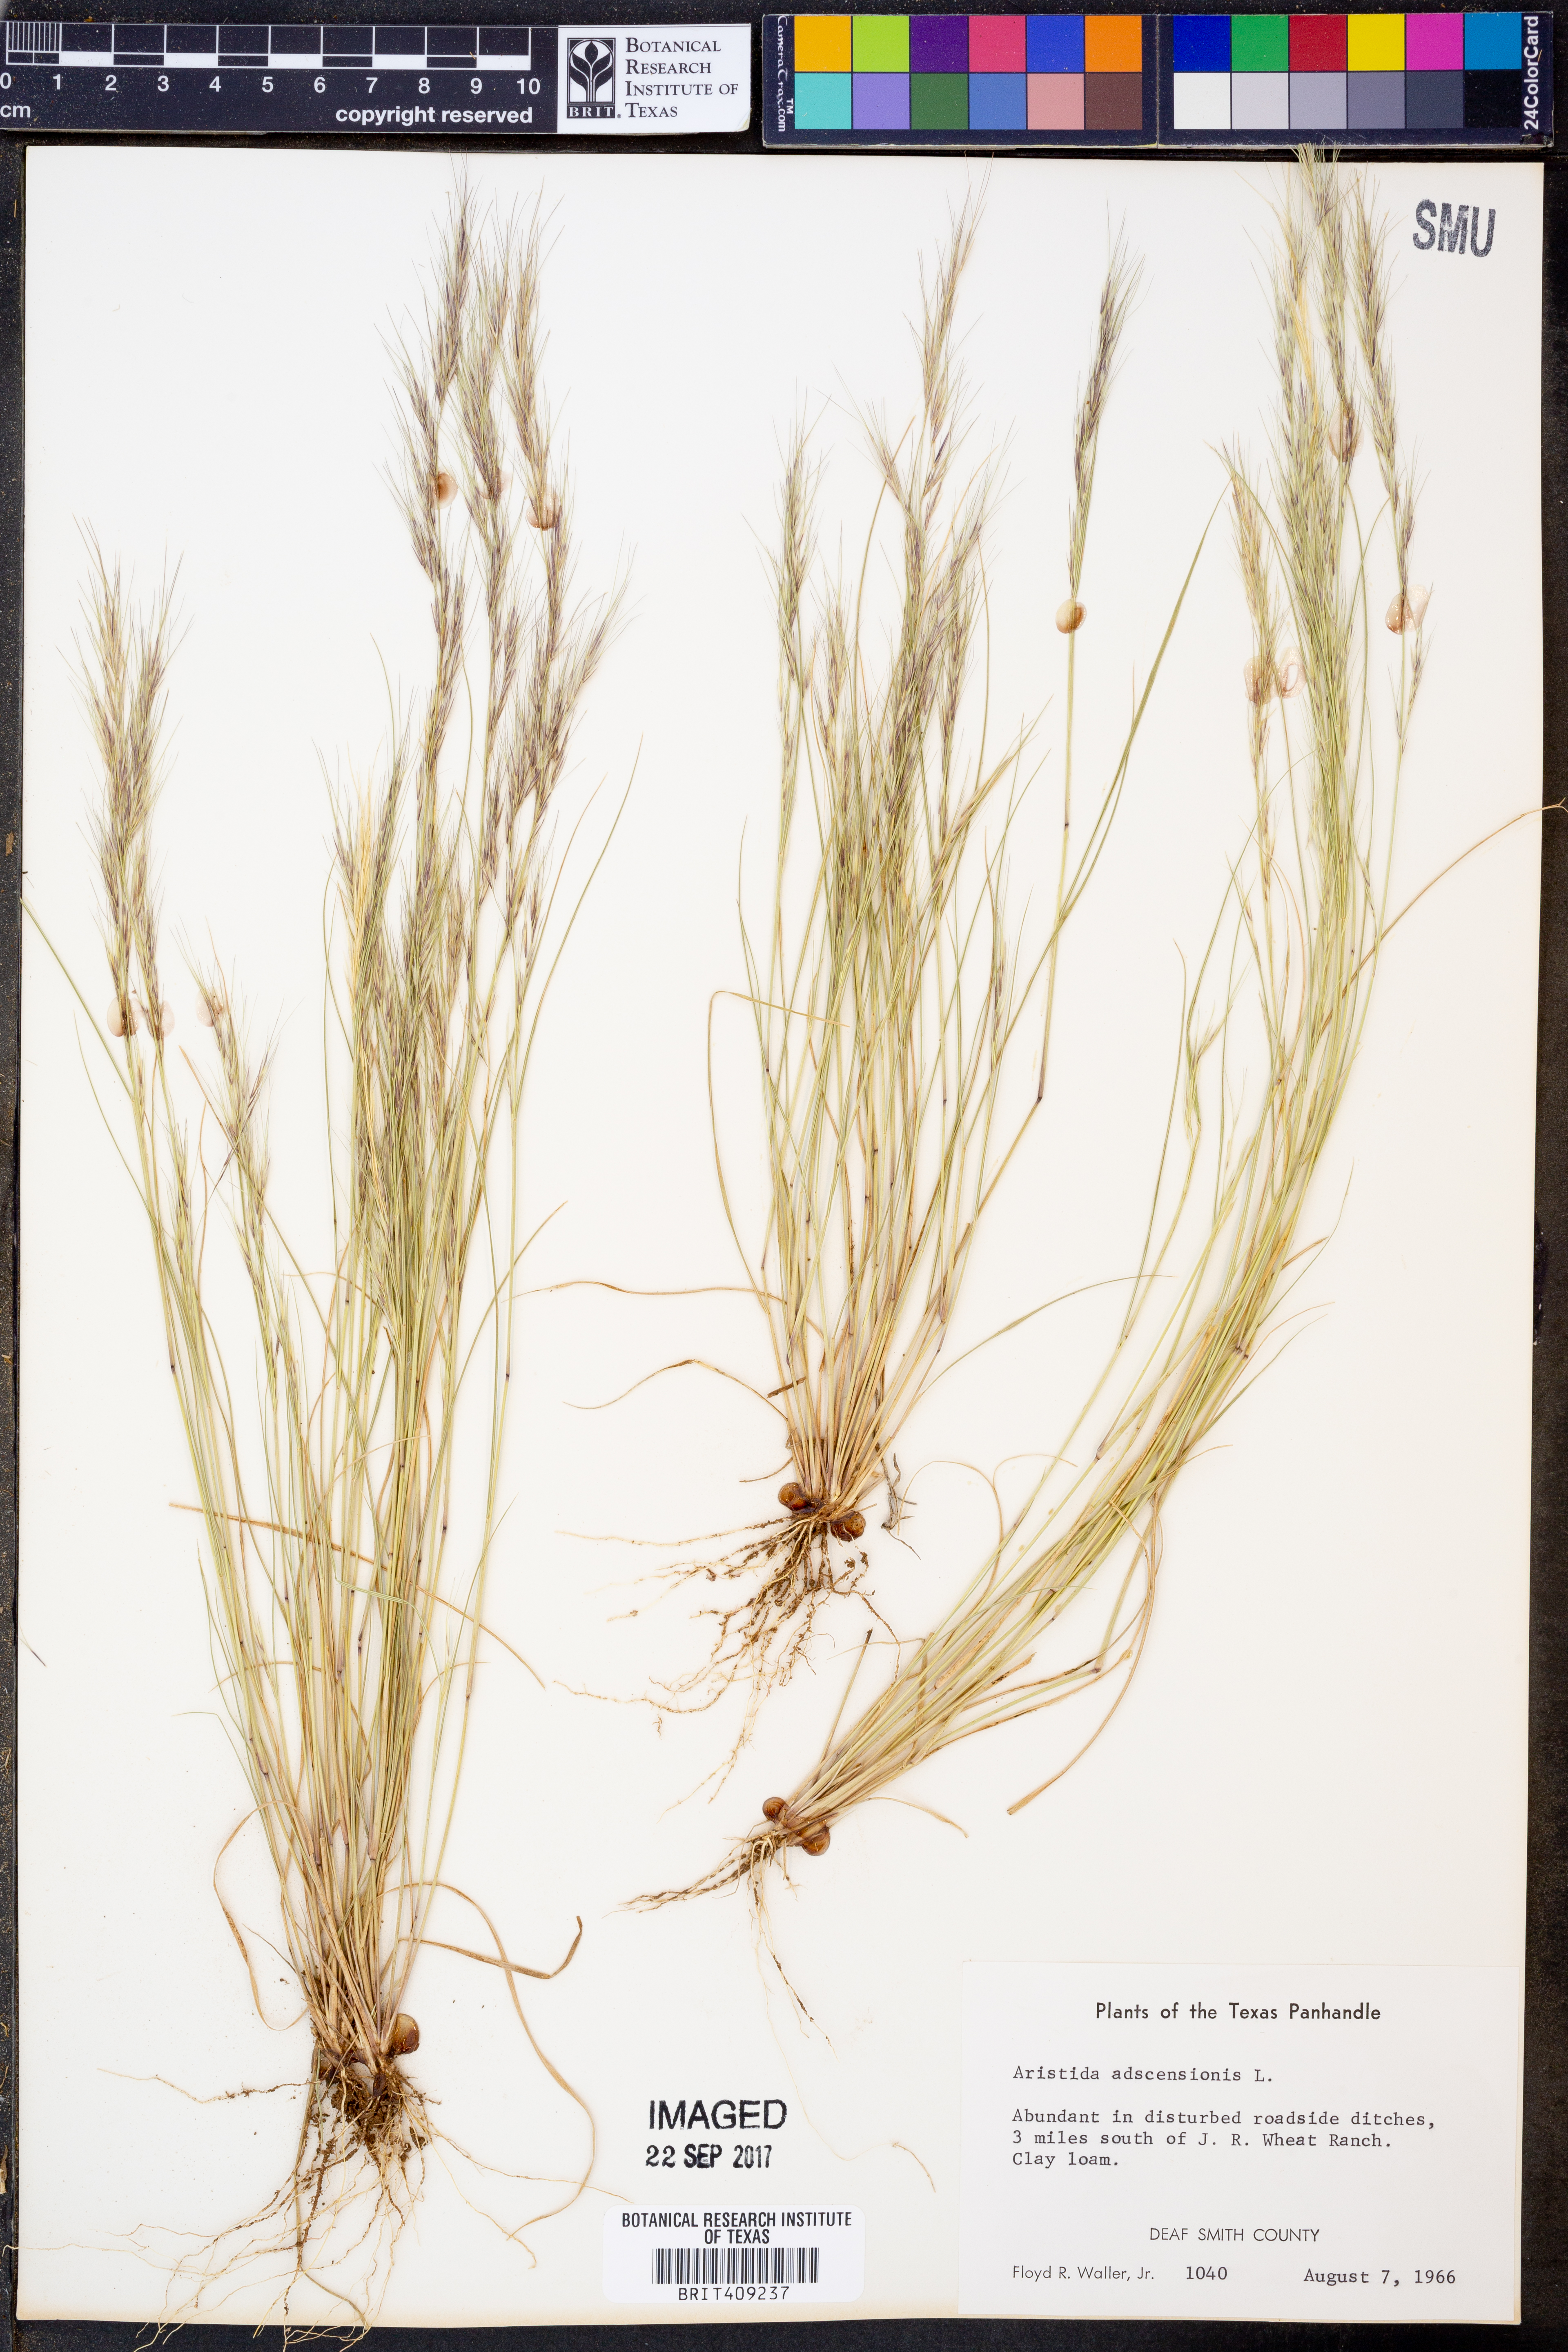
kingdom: Plantae
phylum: Tracheophyta
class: Liliopsida
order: Poales
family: Poaceae
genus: Aristida
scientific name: Aristida adscensionis
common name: Sixweeks threeawn
